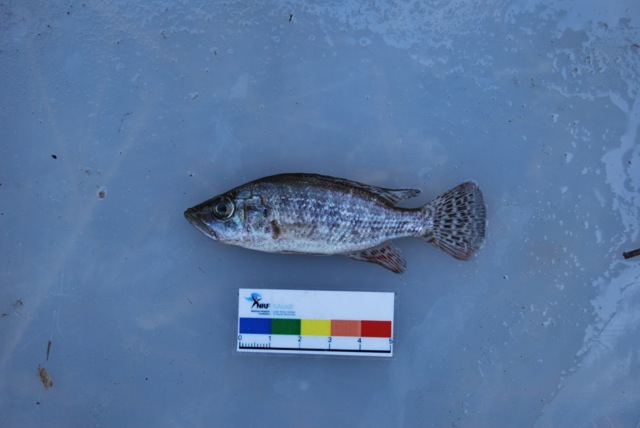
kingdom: Animalia
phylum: Chordata
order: Perciformes
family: Cichlidae
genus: Serranochromis
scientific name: Serranochromis
